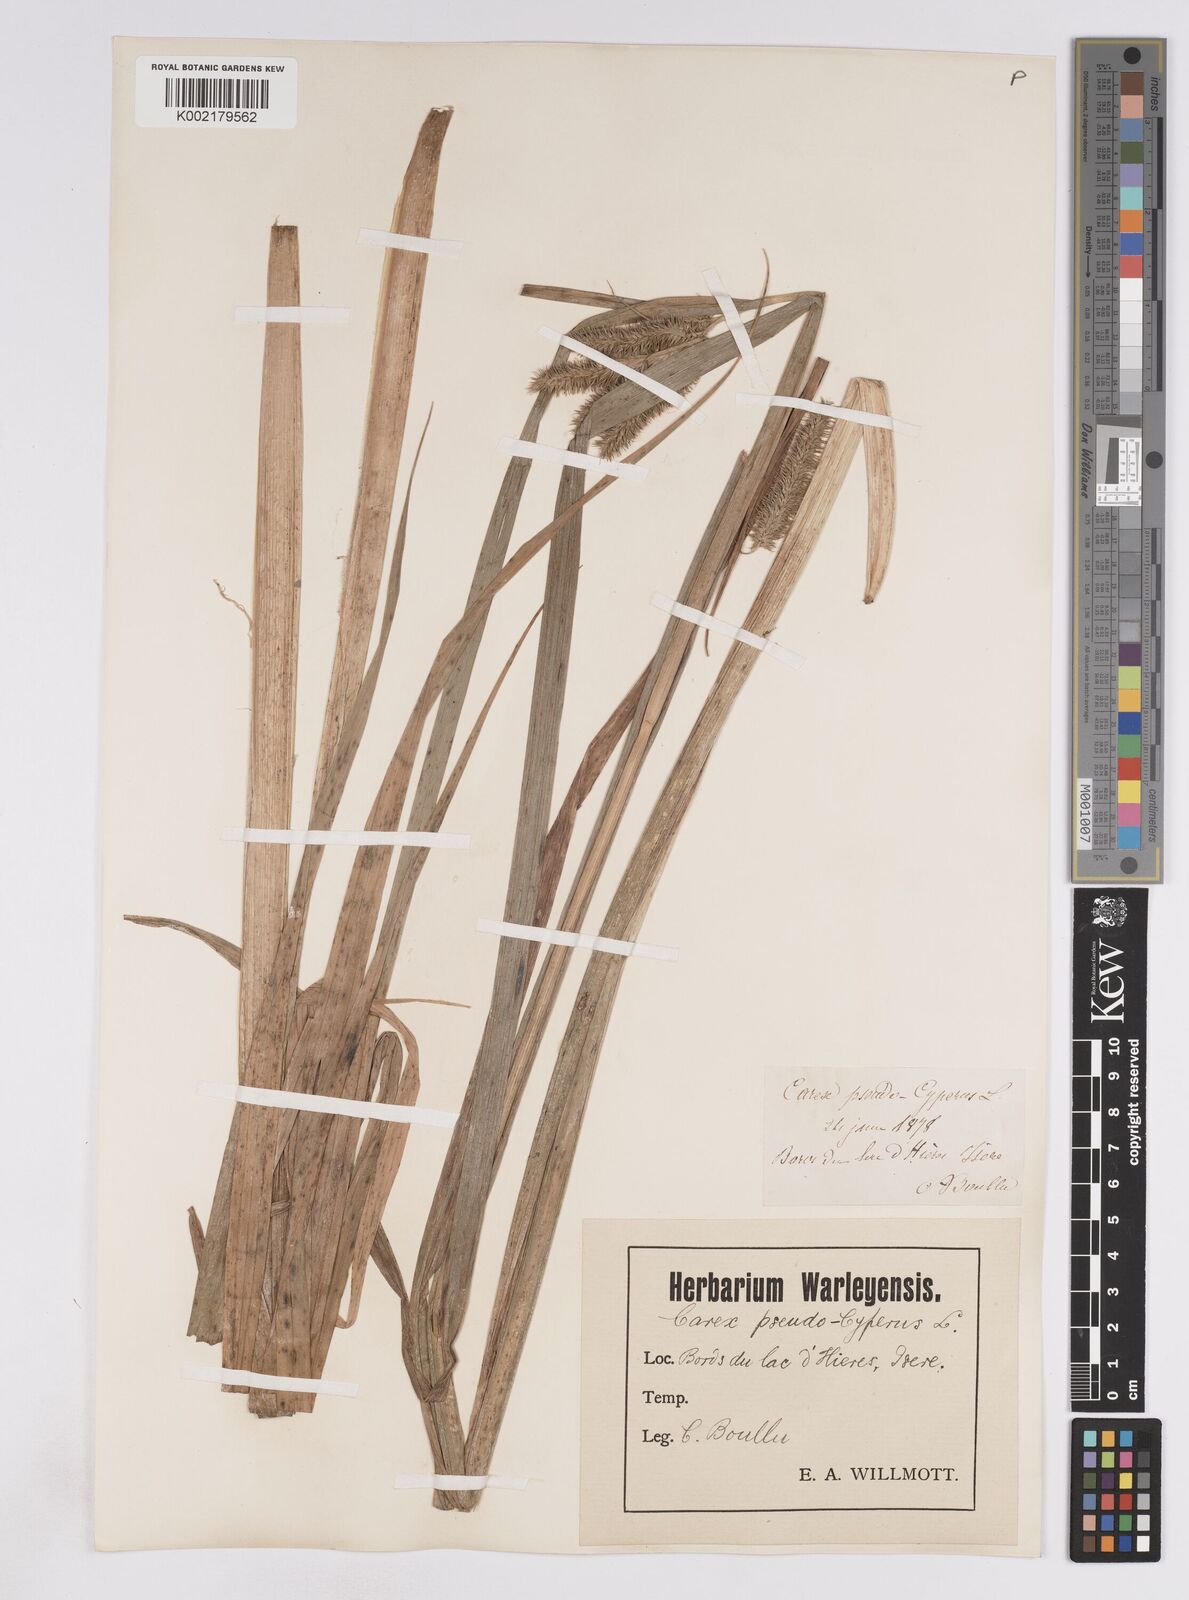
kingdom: Plantae
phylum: Tracheophyta
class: Liliopsida
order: Poales
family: Cyperaceae
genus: Carex
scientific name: Carex pseudocyperus
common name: Cyperus sedge
